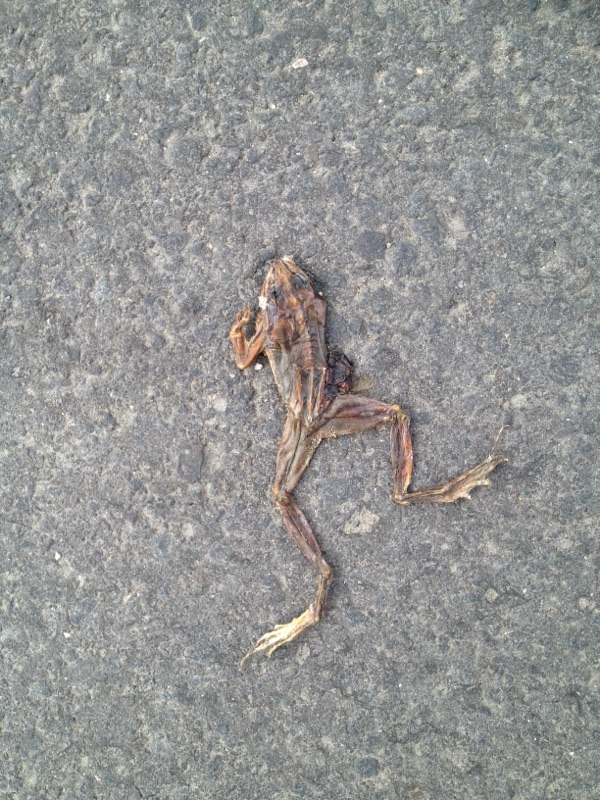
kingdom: Animalia
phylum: Chordata
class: Amphibia
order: Anura
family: Ranidae
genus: Rana
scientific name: Rana dalmatina
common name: Agile frog
